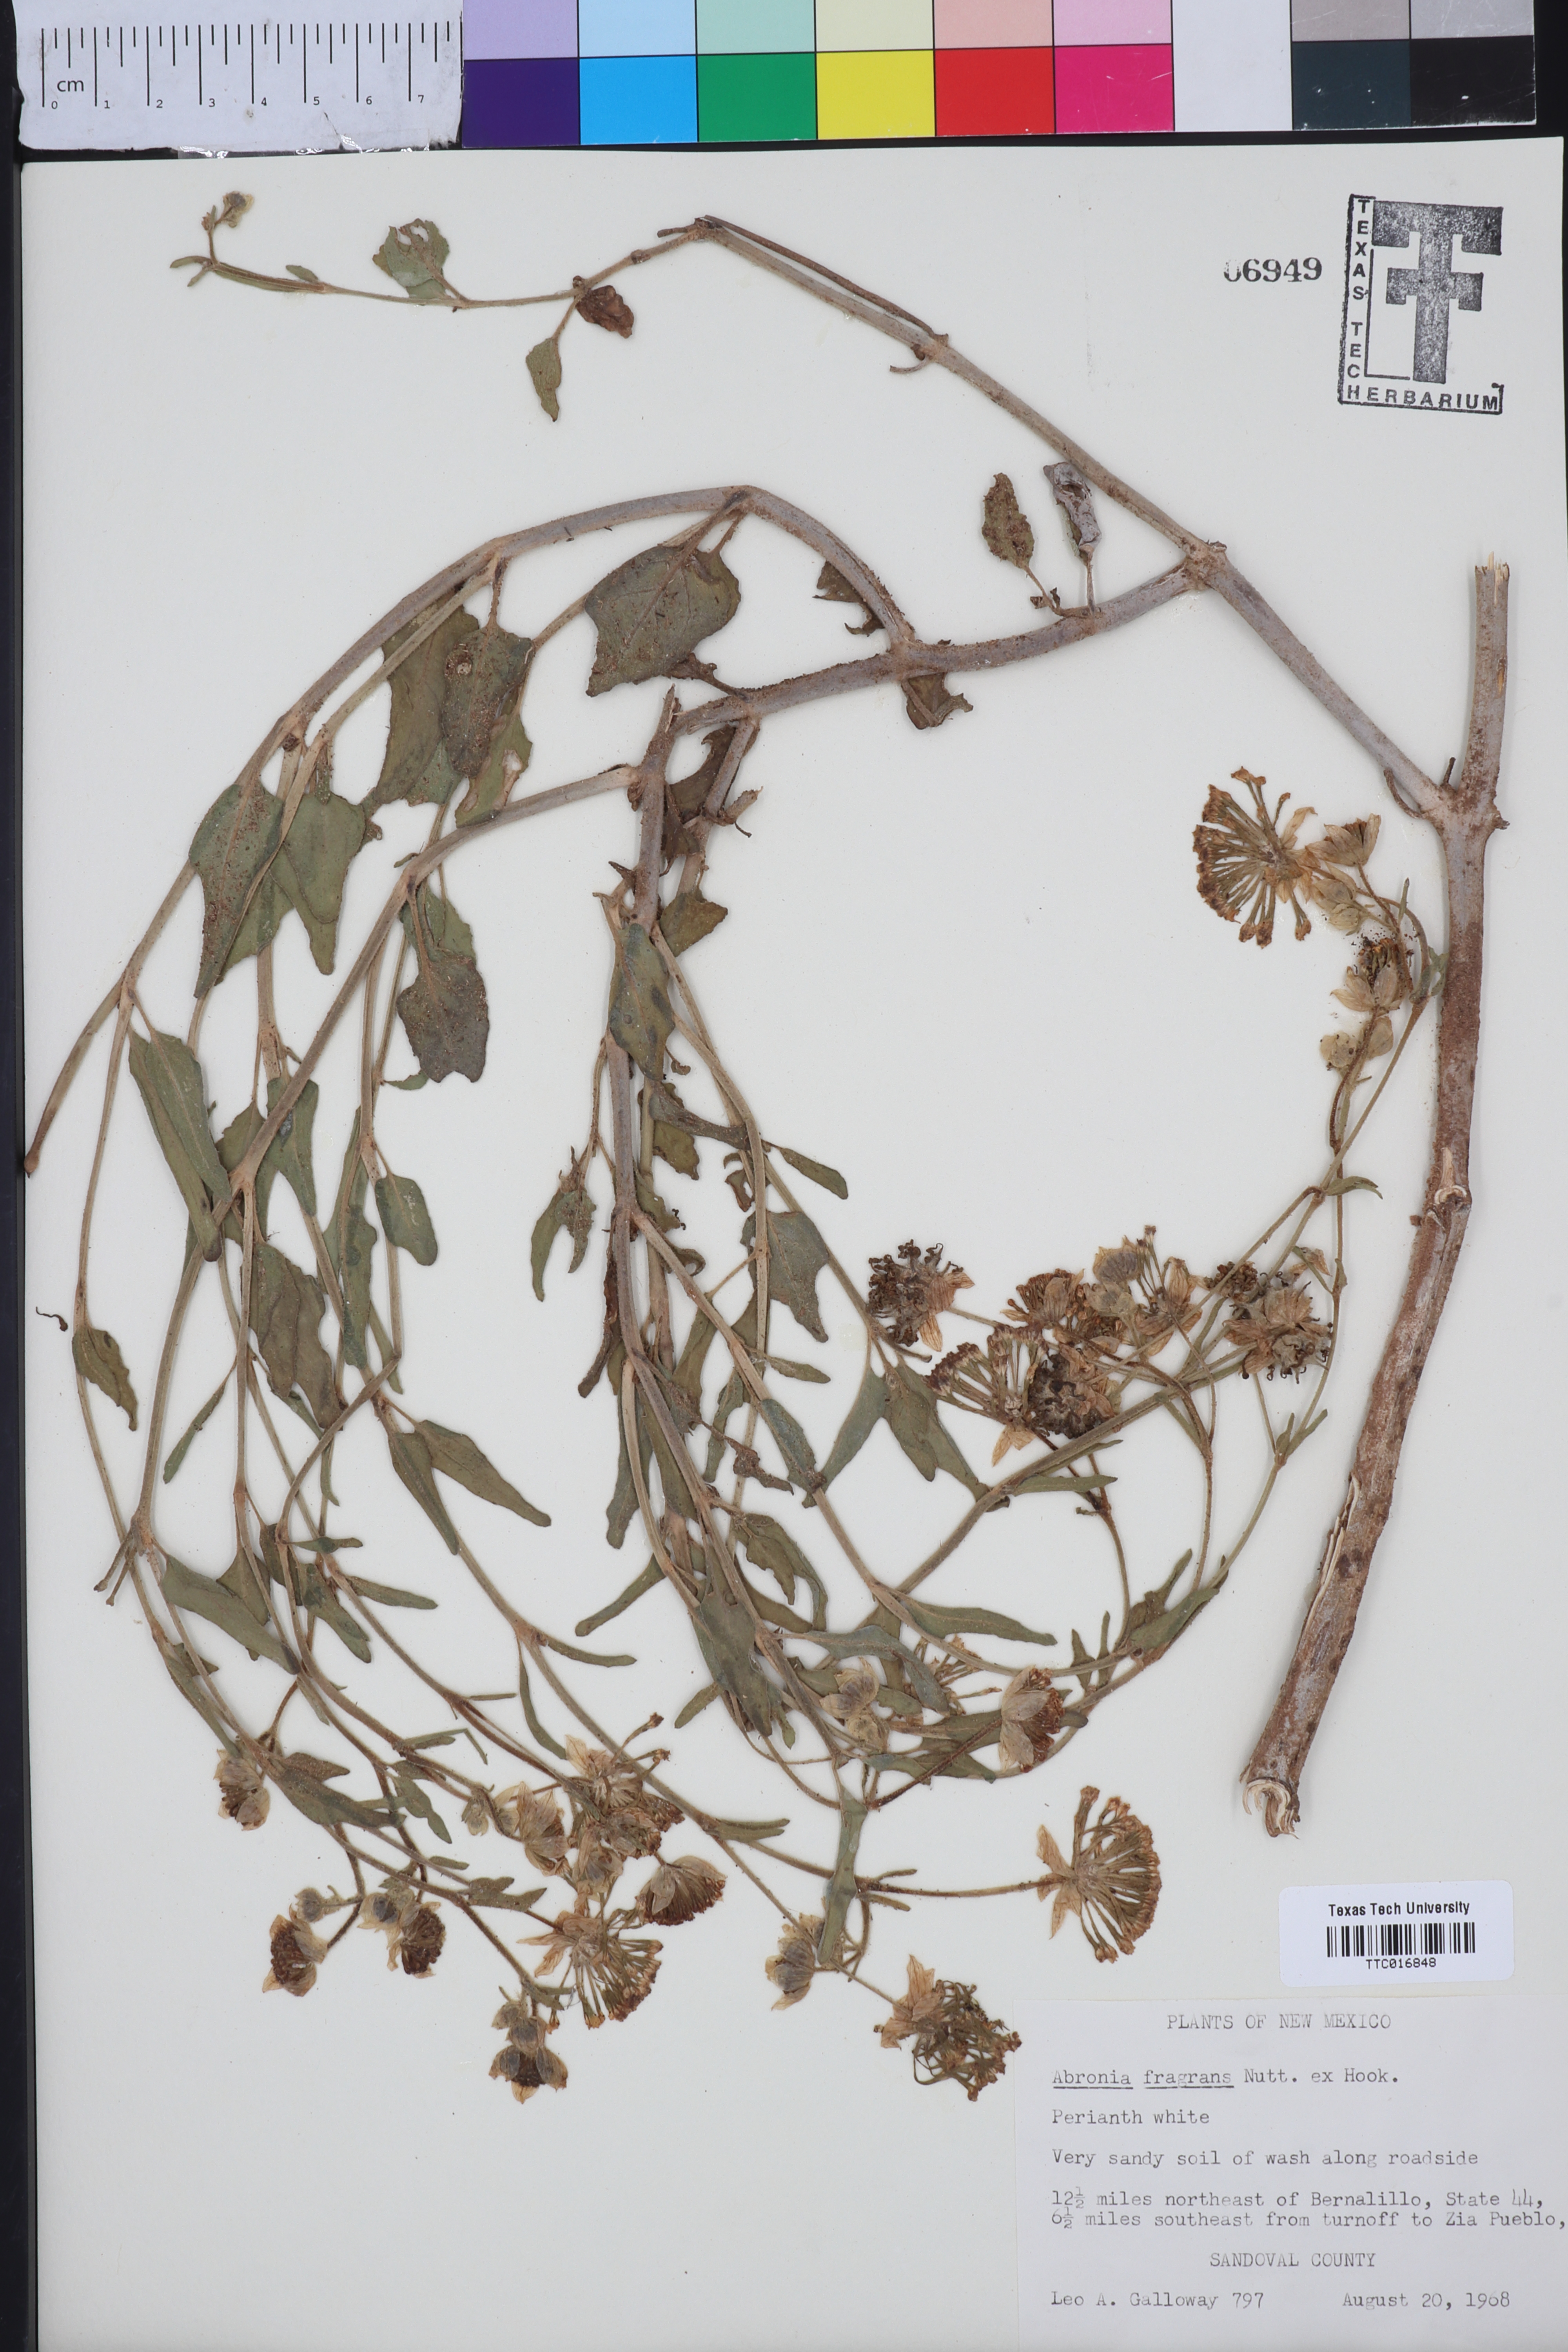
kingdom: Plantae
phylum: Tracheophyta
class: Magnoliopsida
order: Caryophyllales
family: Nyctaginaceae
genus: Abronia
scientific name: Abronia fragrans
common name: Fragrant sand-verbena
